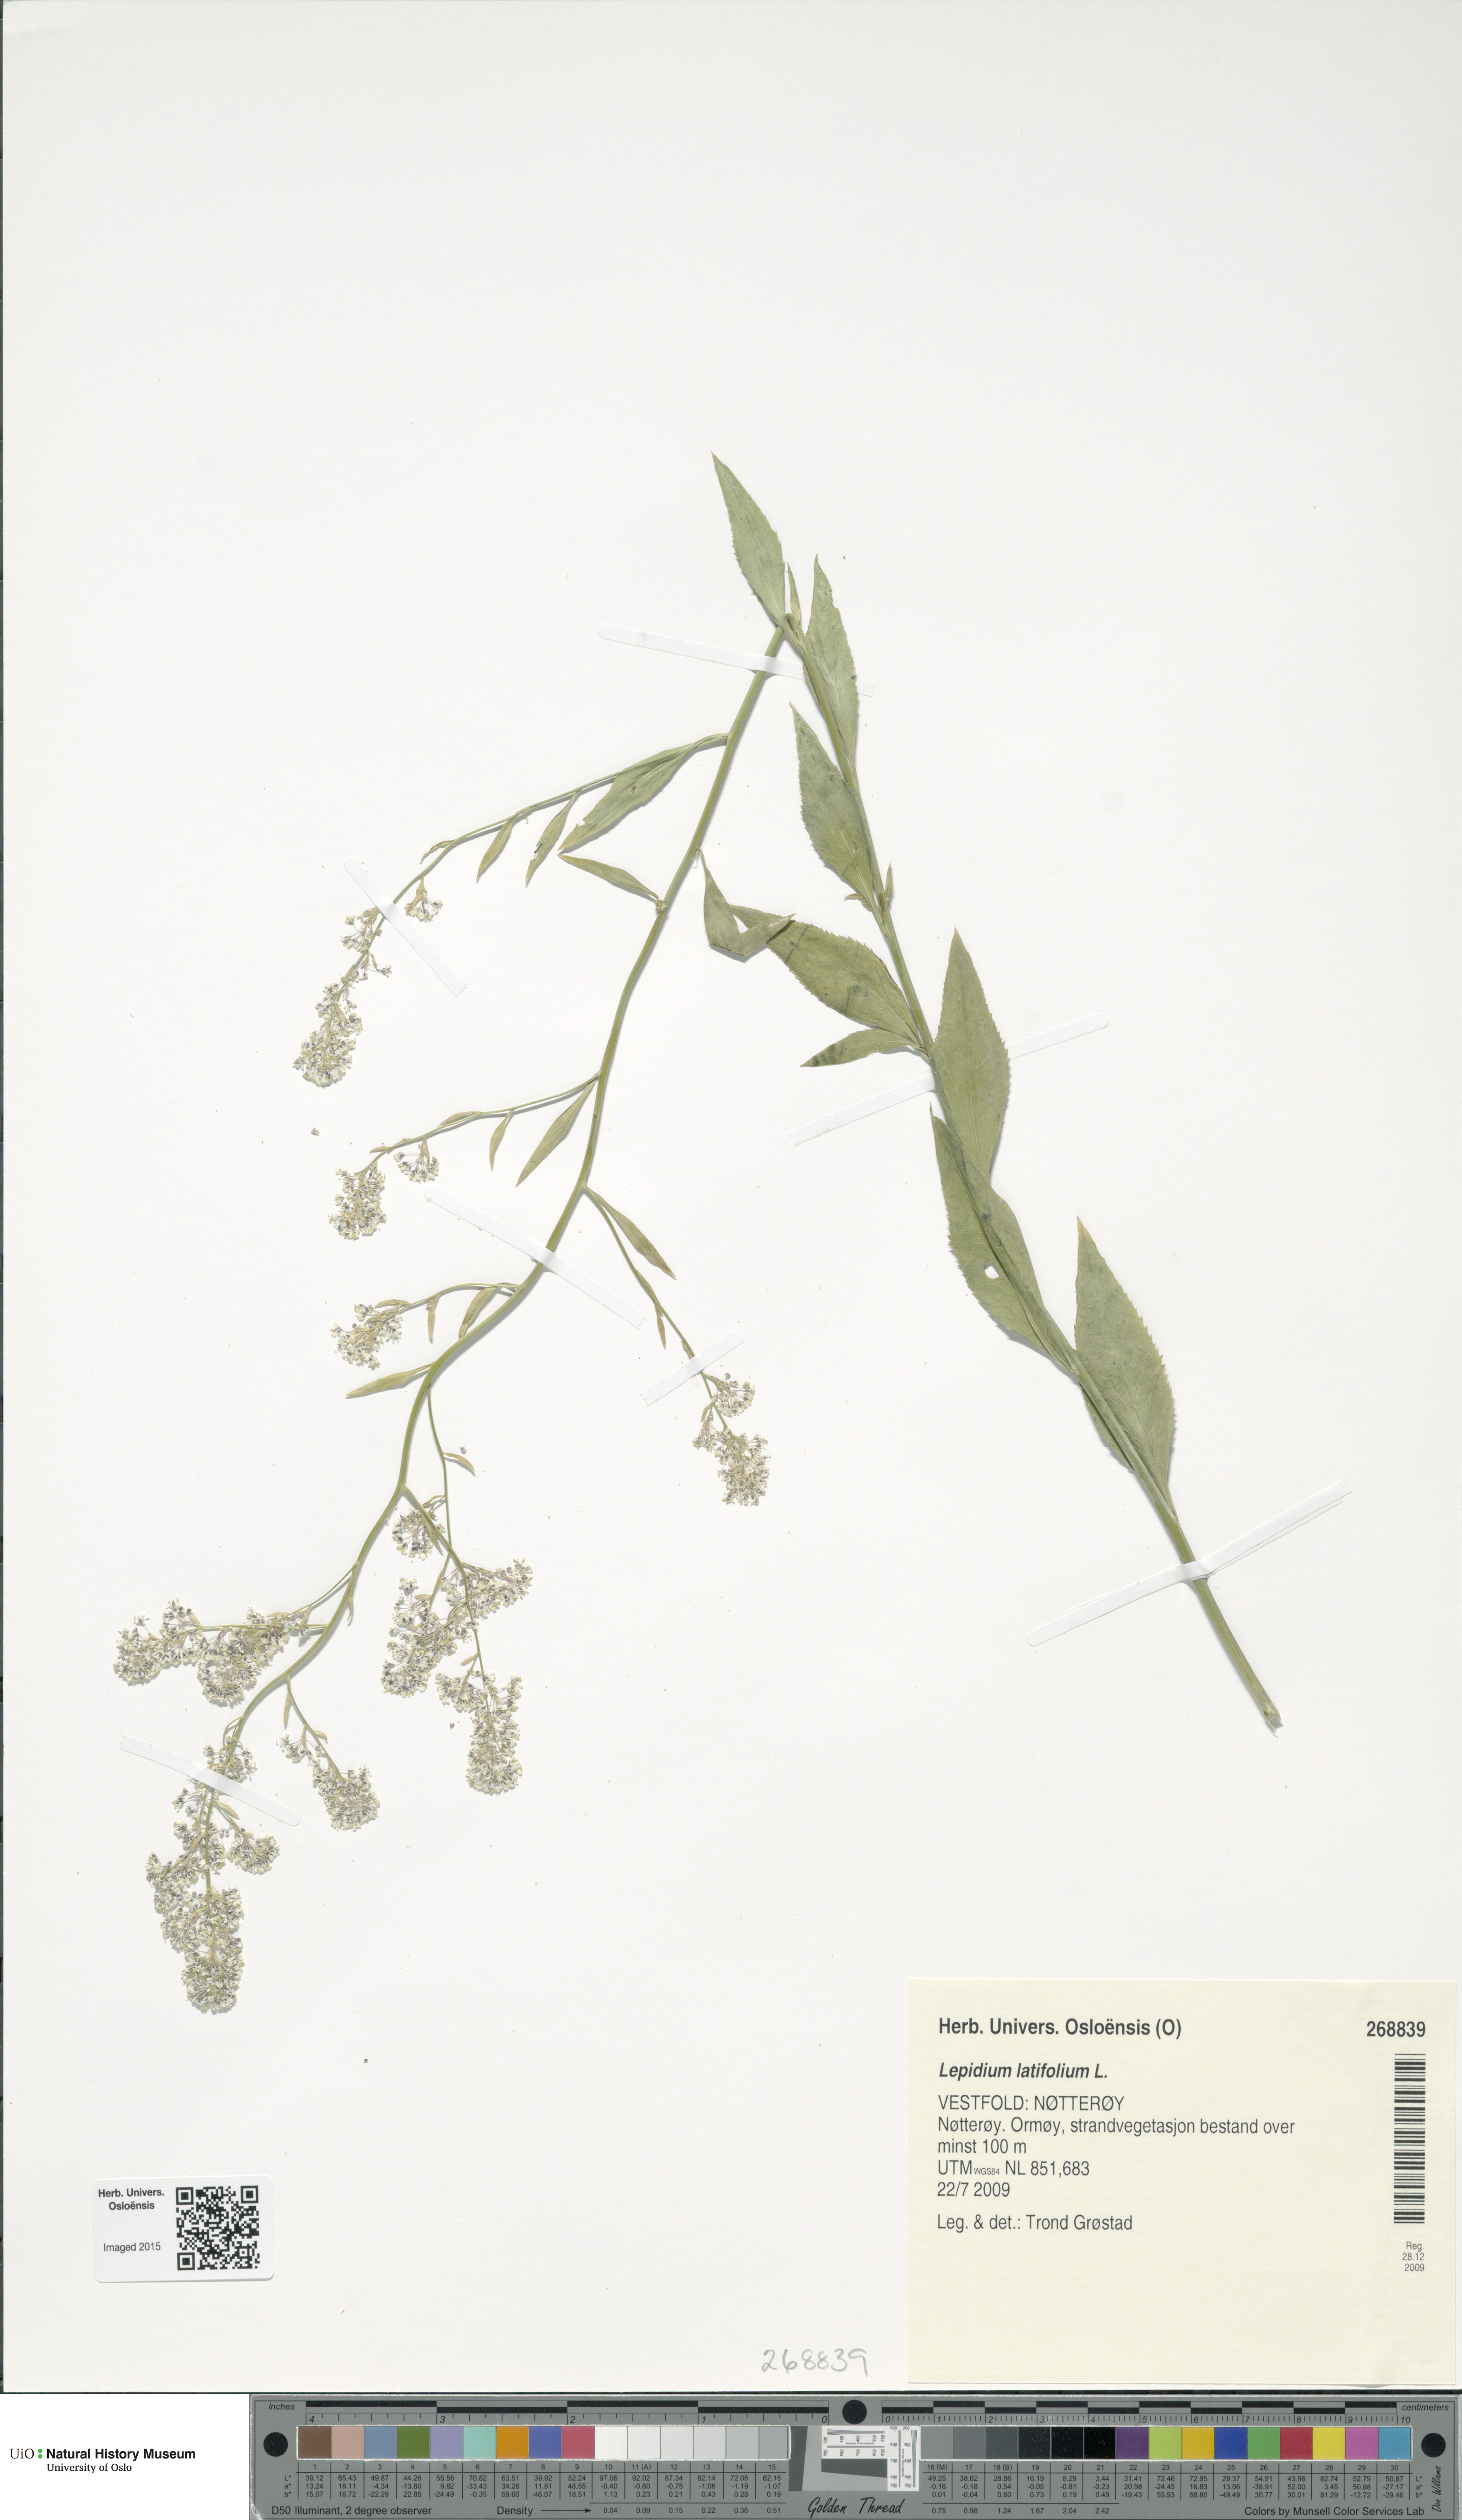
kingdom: Plantae
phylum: Tracheophyta
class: Magnoliopsida
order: Brassicales
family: Brassicaceae
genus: Lepidium
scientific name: Lepidium latifolium
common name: Dittander
